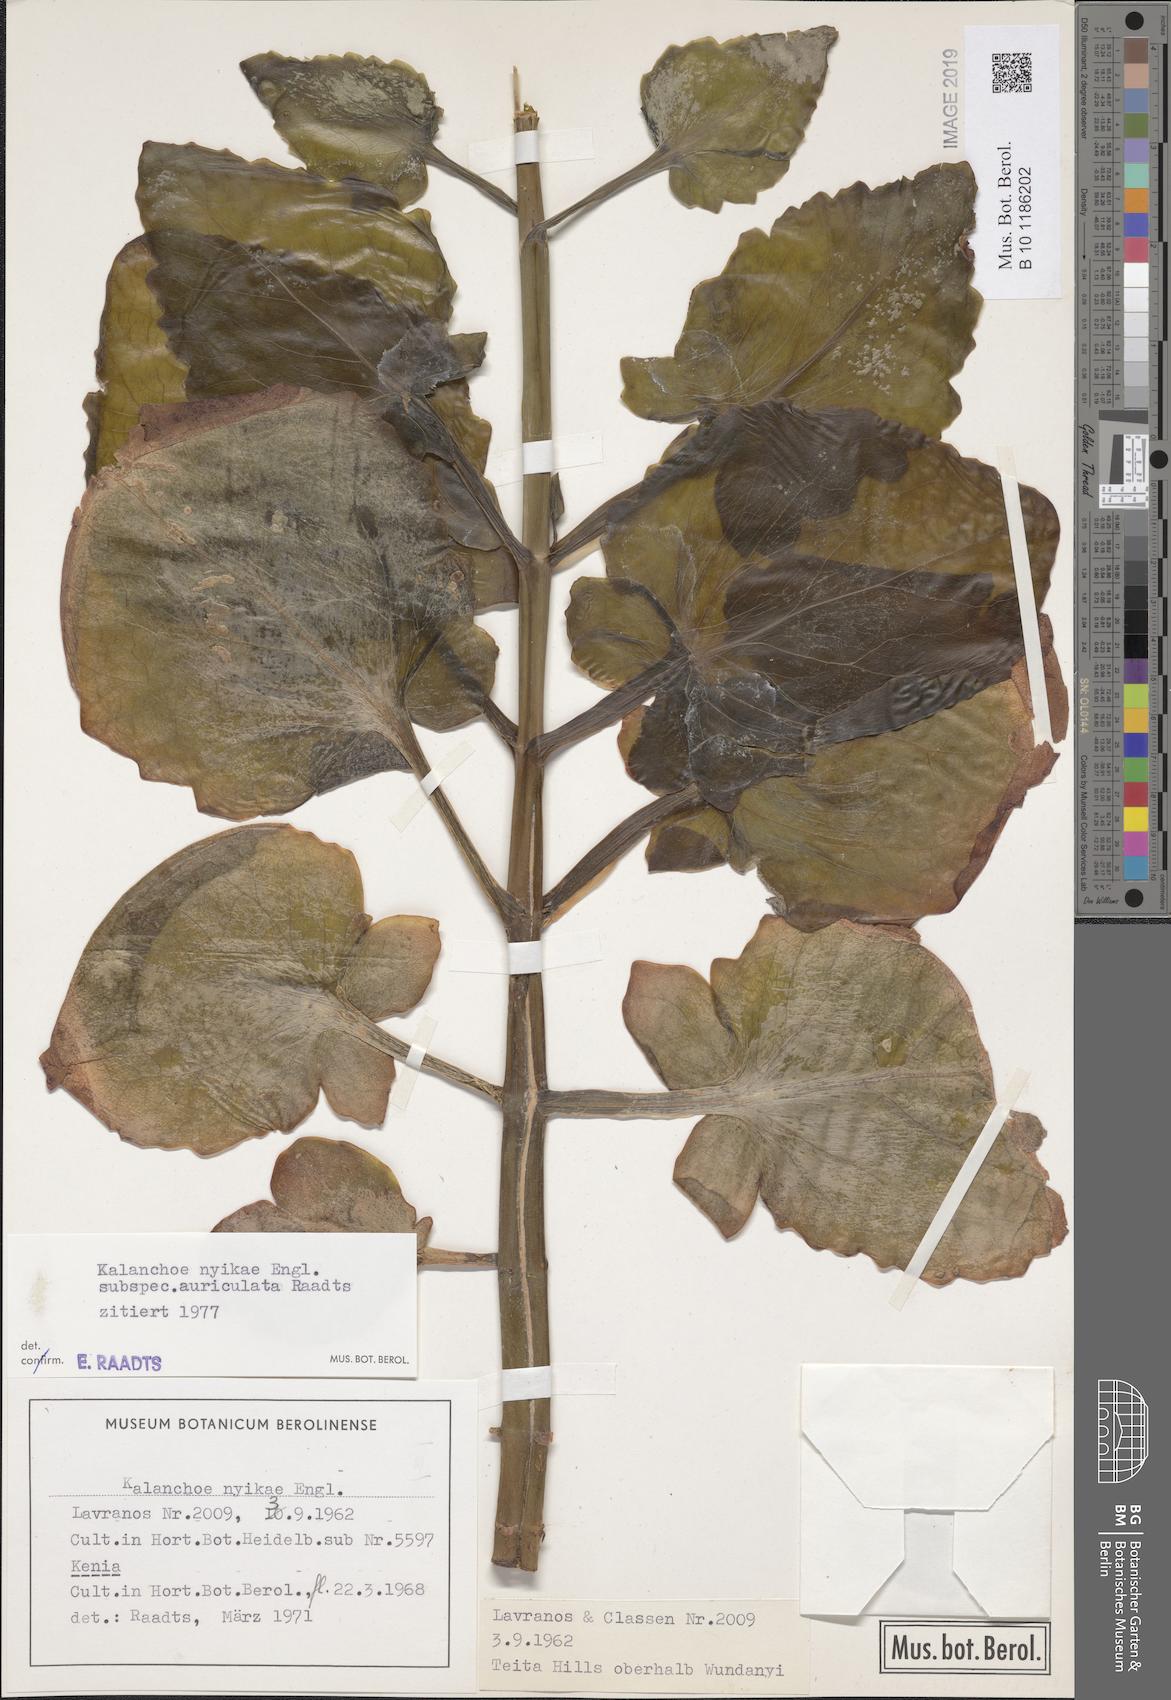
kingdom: Plantae
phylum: Tracheophyta
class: Magnoliopsida
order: Saxifragales
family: Crassulaceae
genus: Kalanchoe
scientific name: Kalanchoe auriculata
